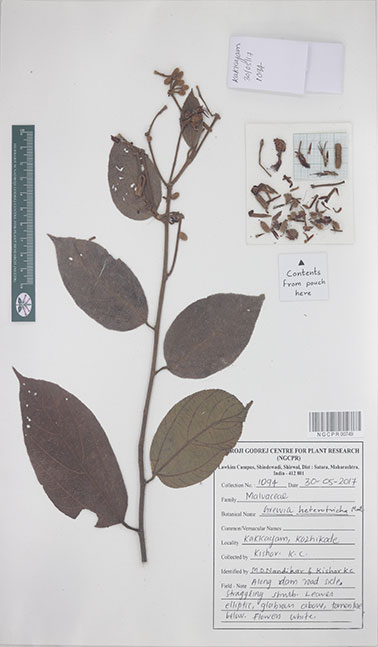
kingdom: Plantae
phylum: Tracheophyta
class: Magnoliopsida
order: Malvales
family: Malvaceae
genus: Grewia
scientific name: Grewia heterotricha
